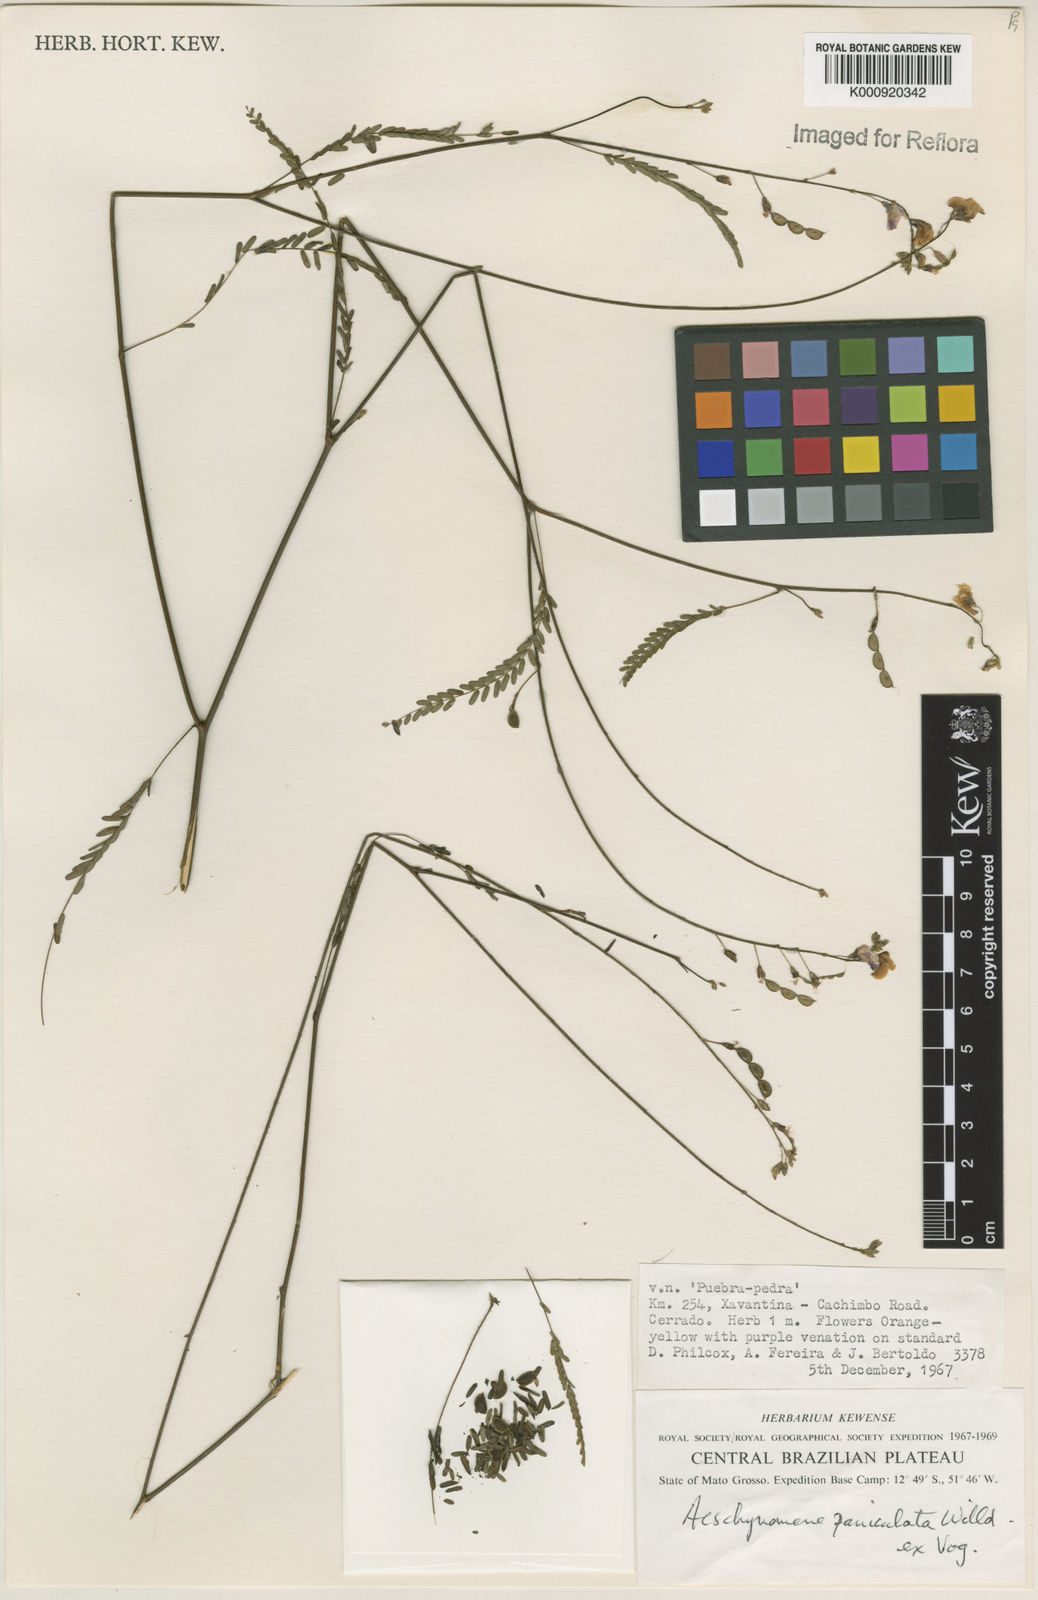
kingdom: Plantae
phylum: Tracheophyta
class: Magnoliopsida
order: Fabales
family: Fabaceae
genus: Ctenodon
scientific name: Ctenodon paniculatus
